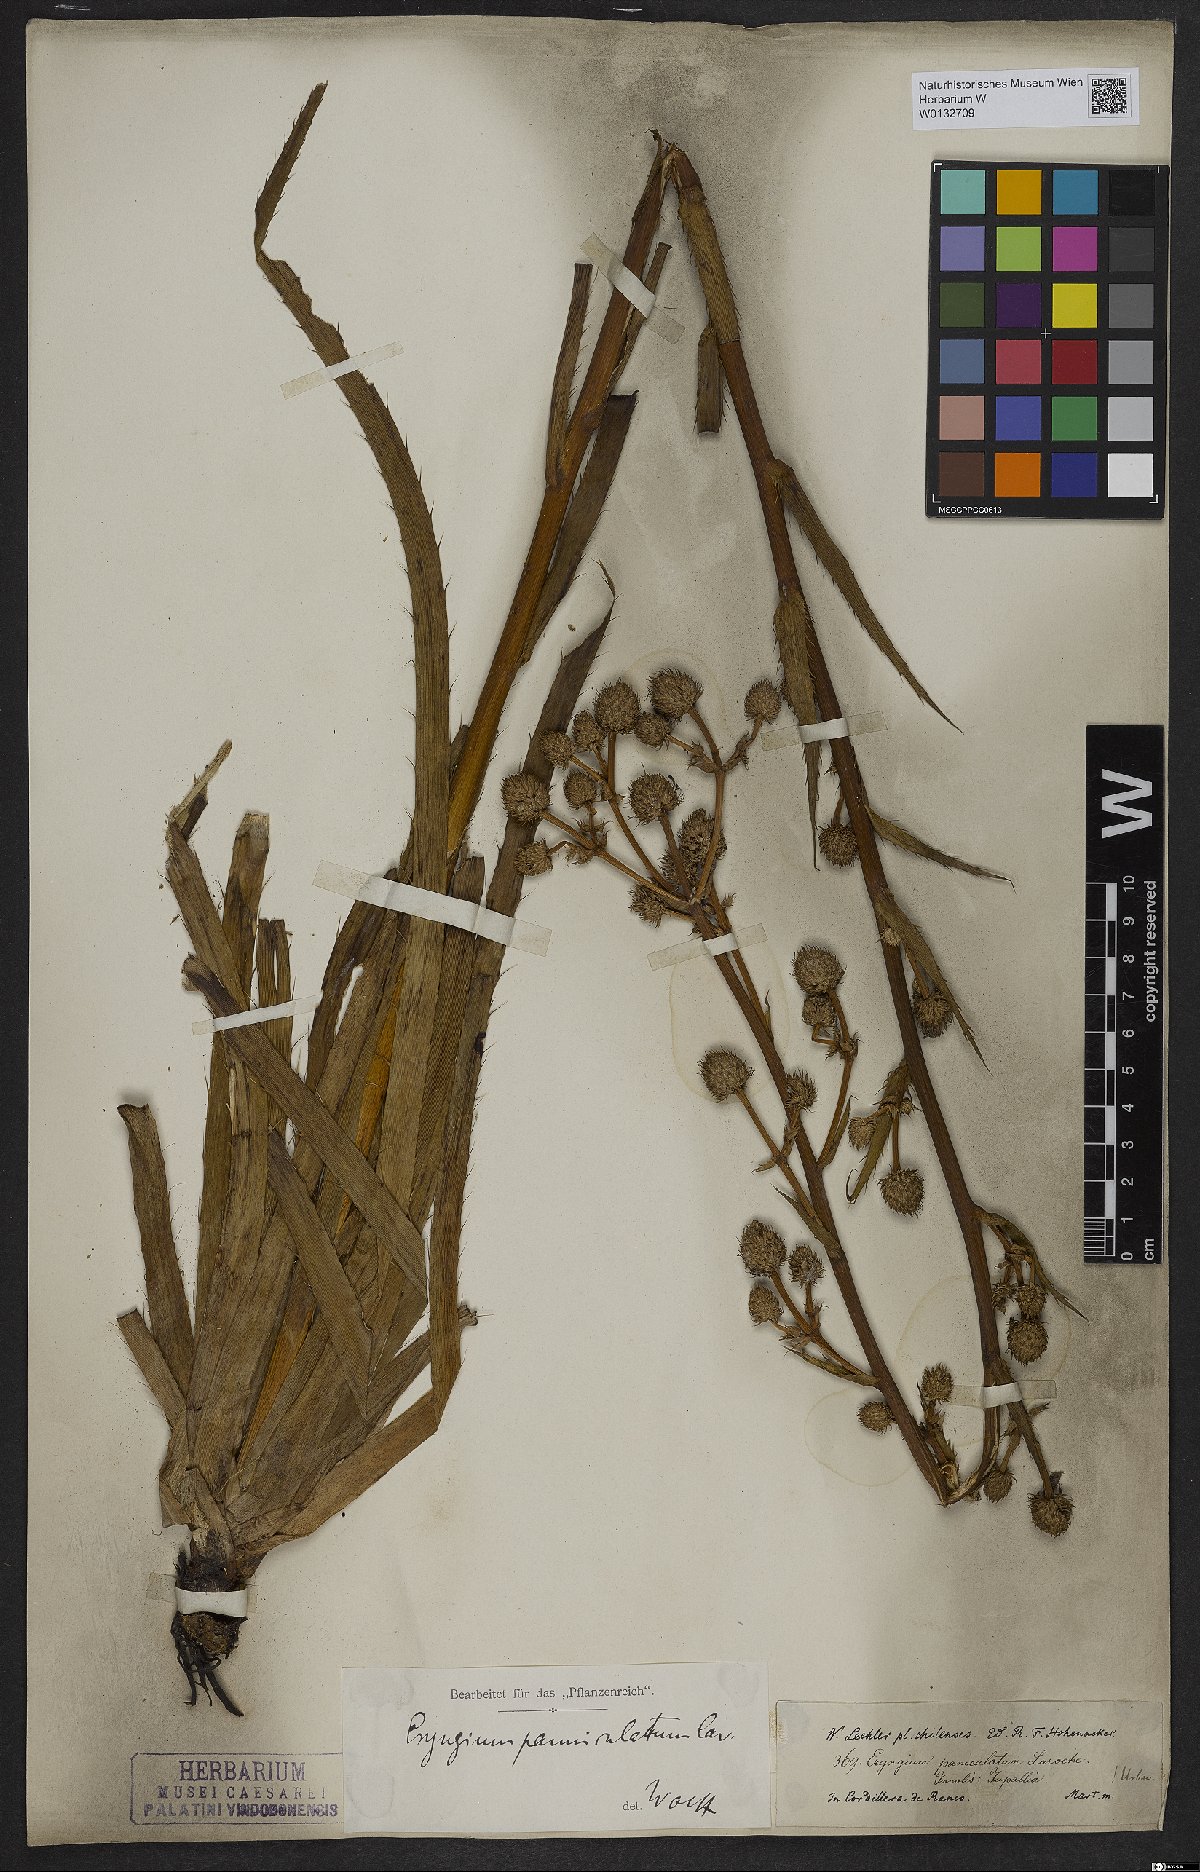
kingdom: Plantae
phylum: Tracheophyta
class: Magnoliopsida
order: Apiales
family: Apiaceae
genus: Eryngium
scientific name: Eryngium humboldtii
